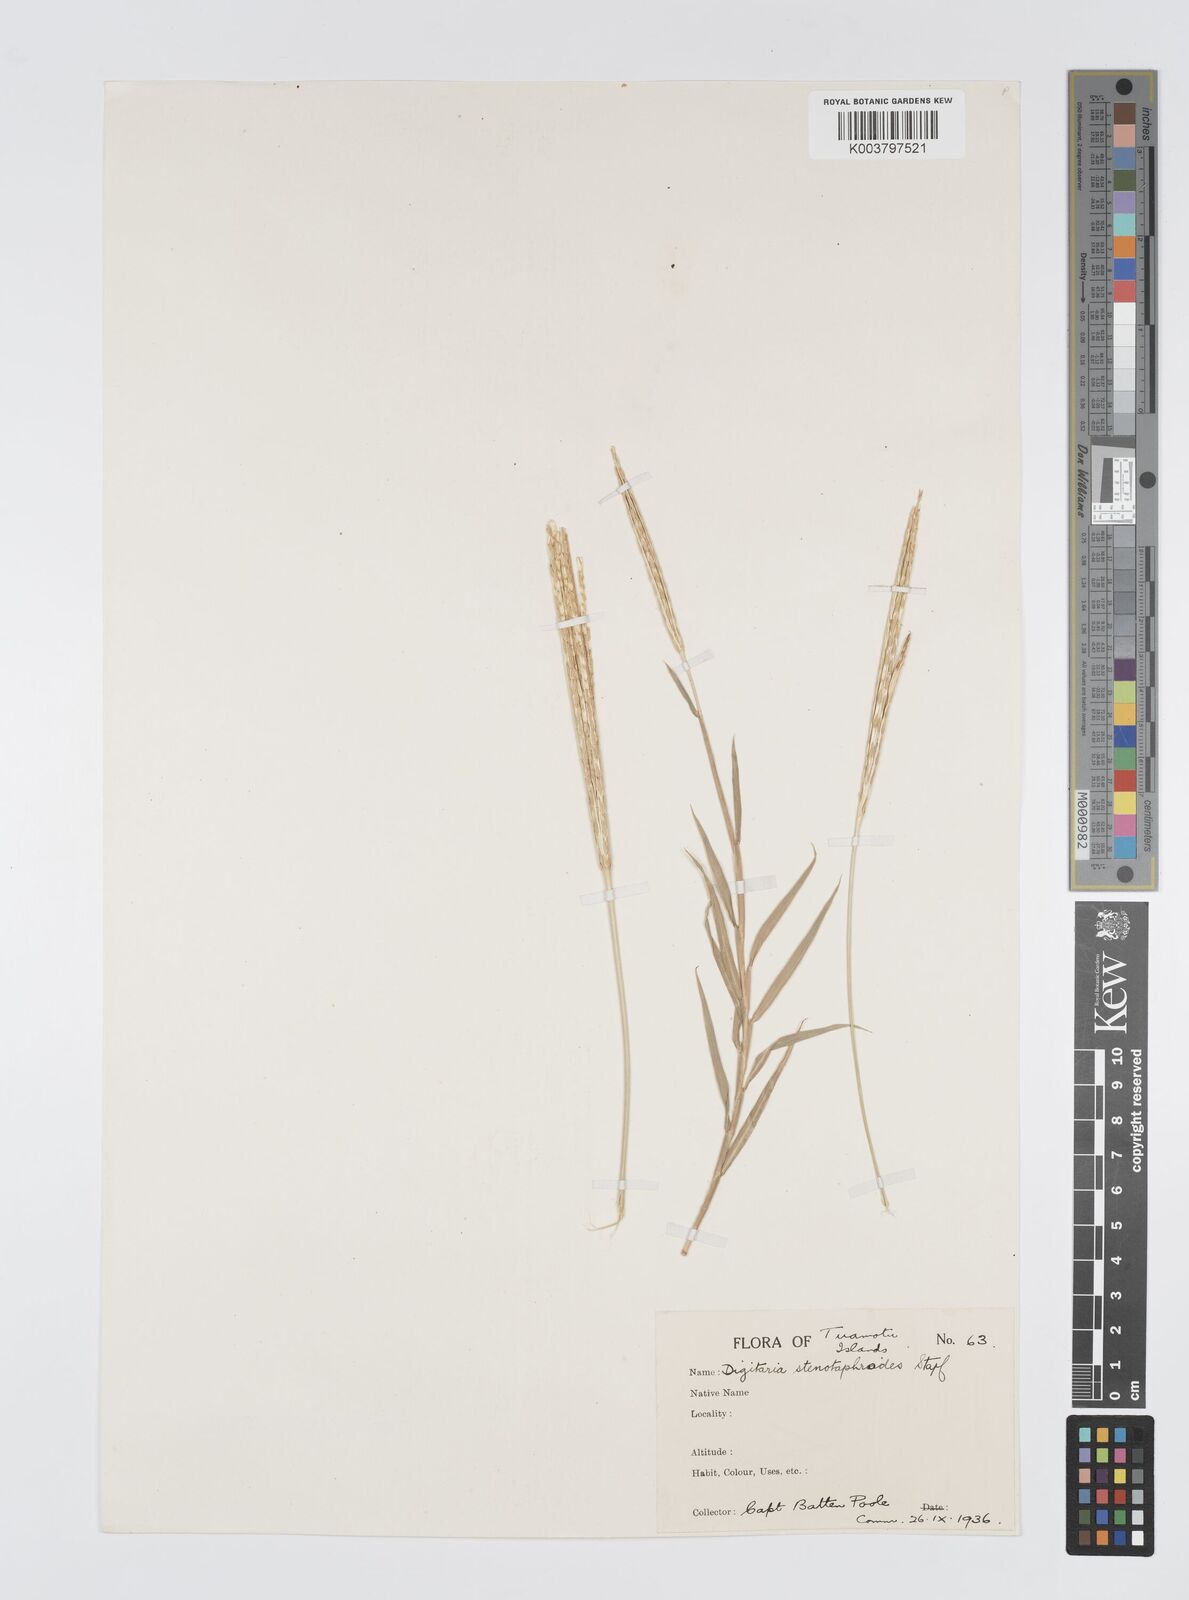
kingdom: Plantae
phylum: Tracheophyta
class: Liliopsida
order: Poales
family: Poaceae
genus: Digitaria
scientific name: Digitaria stenotaphrodes
